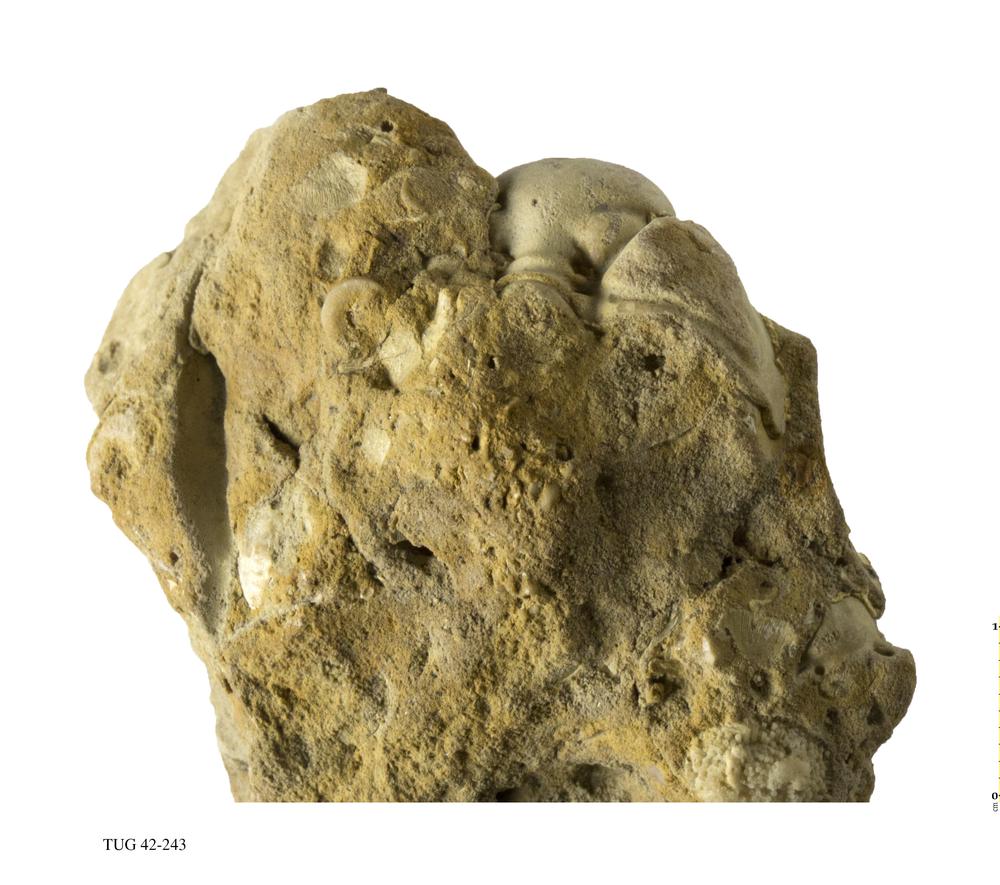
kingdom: Animalia
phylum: Arthropoda
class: Trilobita
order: Phacopida
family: Phacopidae
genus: Phacops
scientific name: Phacops
